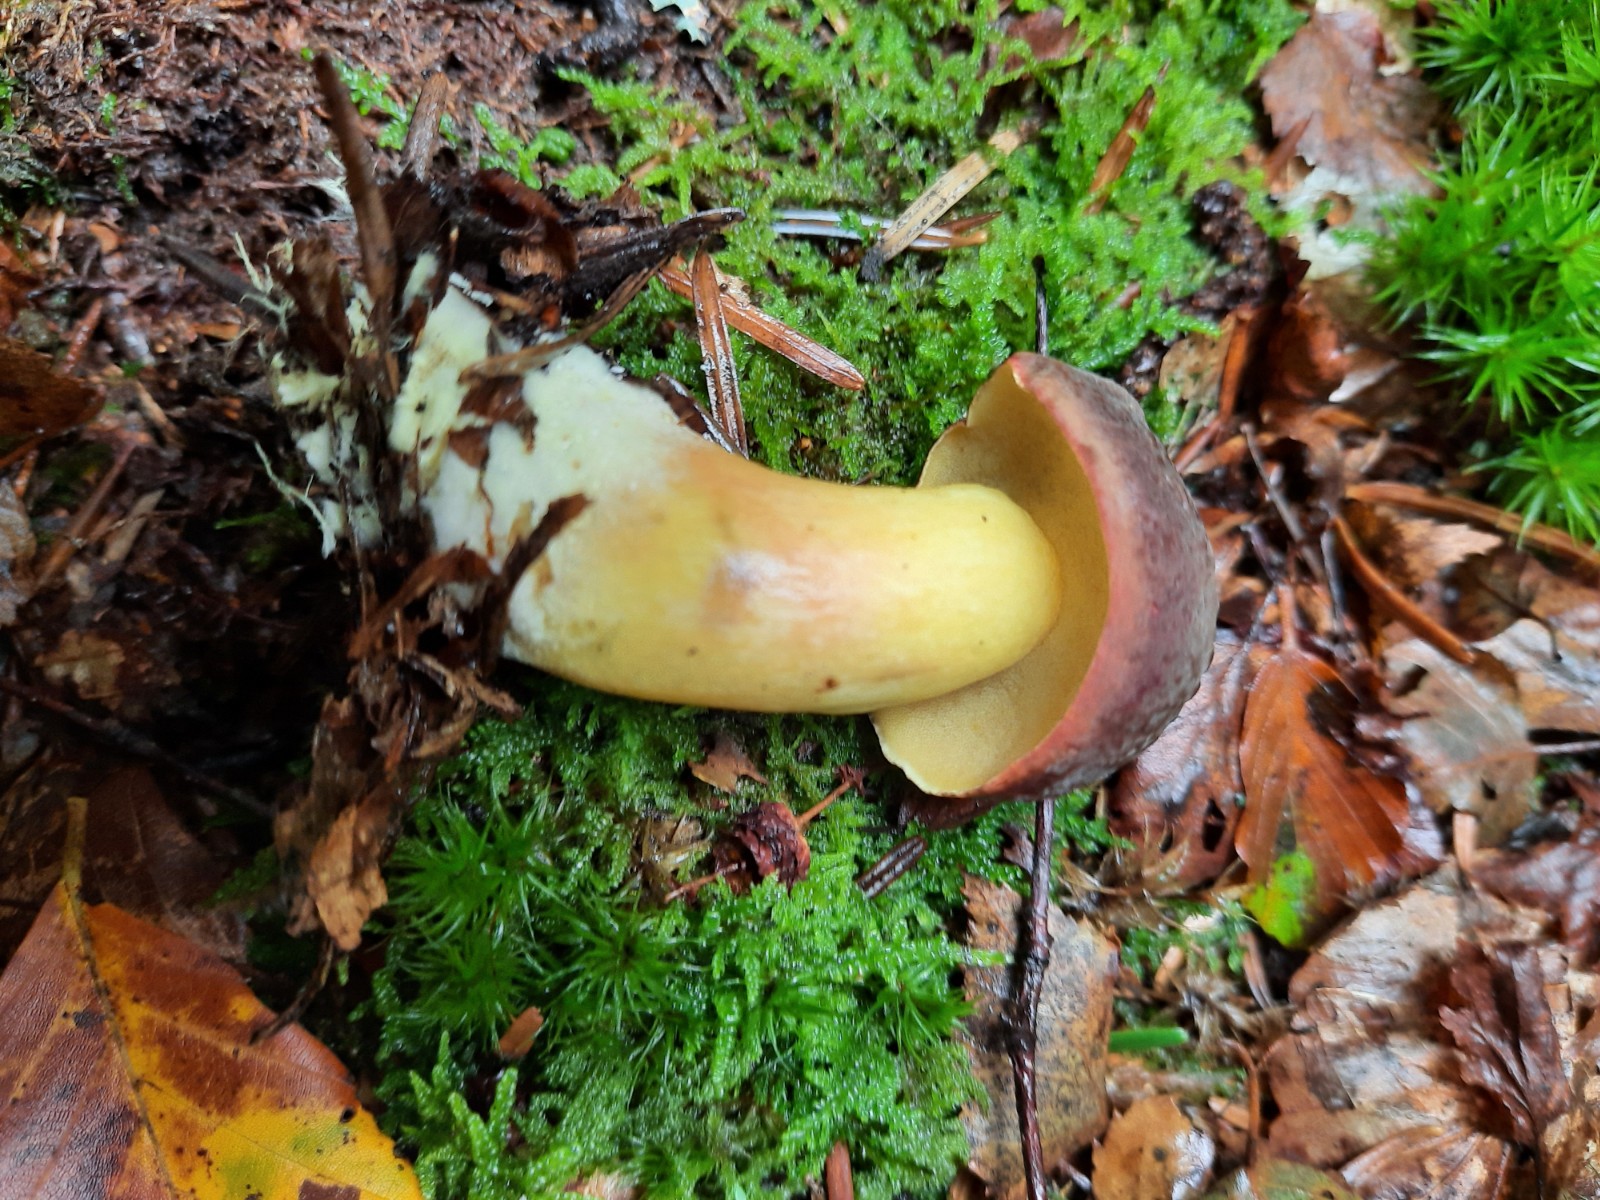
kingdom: Fungi
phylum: Basidiomycota
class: Agaricomycetes
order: Boletales
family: Boletaceae
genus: Xerocomellus
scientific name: Xerocomellus pruinatus
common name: dugget rørhat
